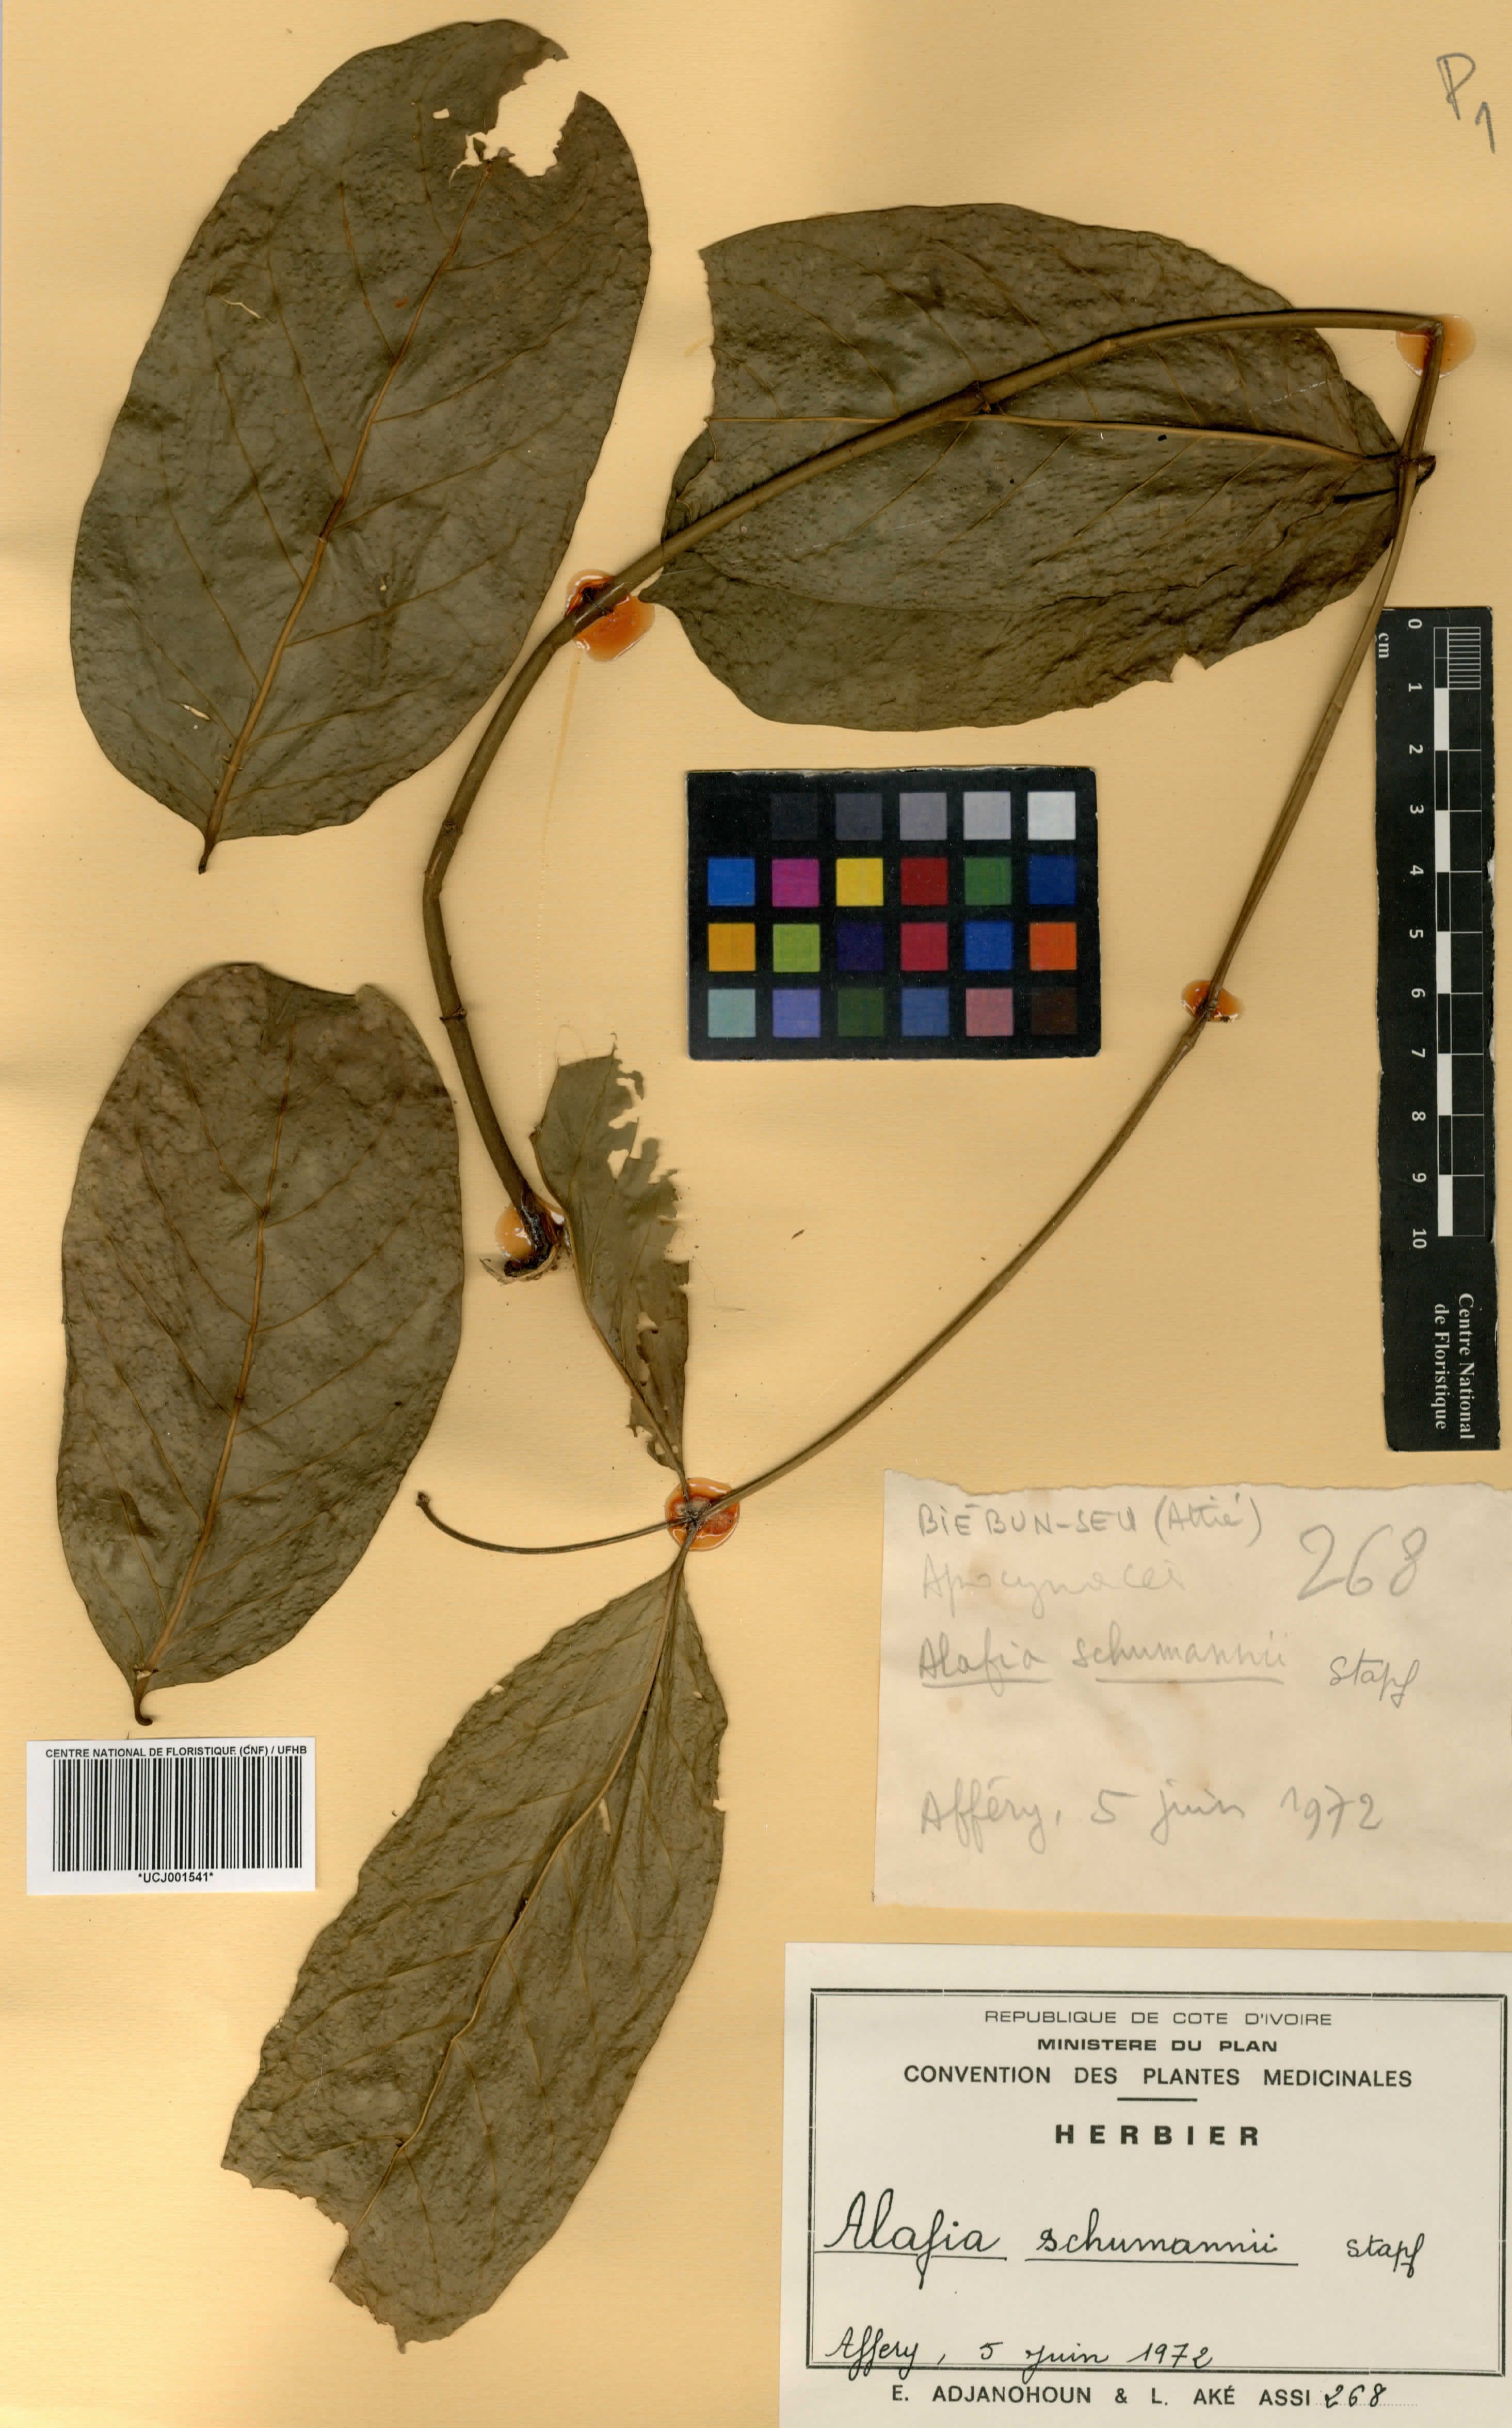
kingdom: Plantae
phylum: Tracheophyta
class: Magnoliopsida
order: Gentianales
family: Apocynaceae
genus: Alafia
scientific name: Alafia schumannii
